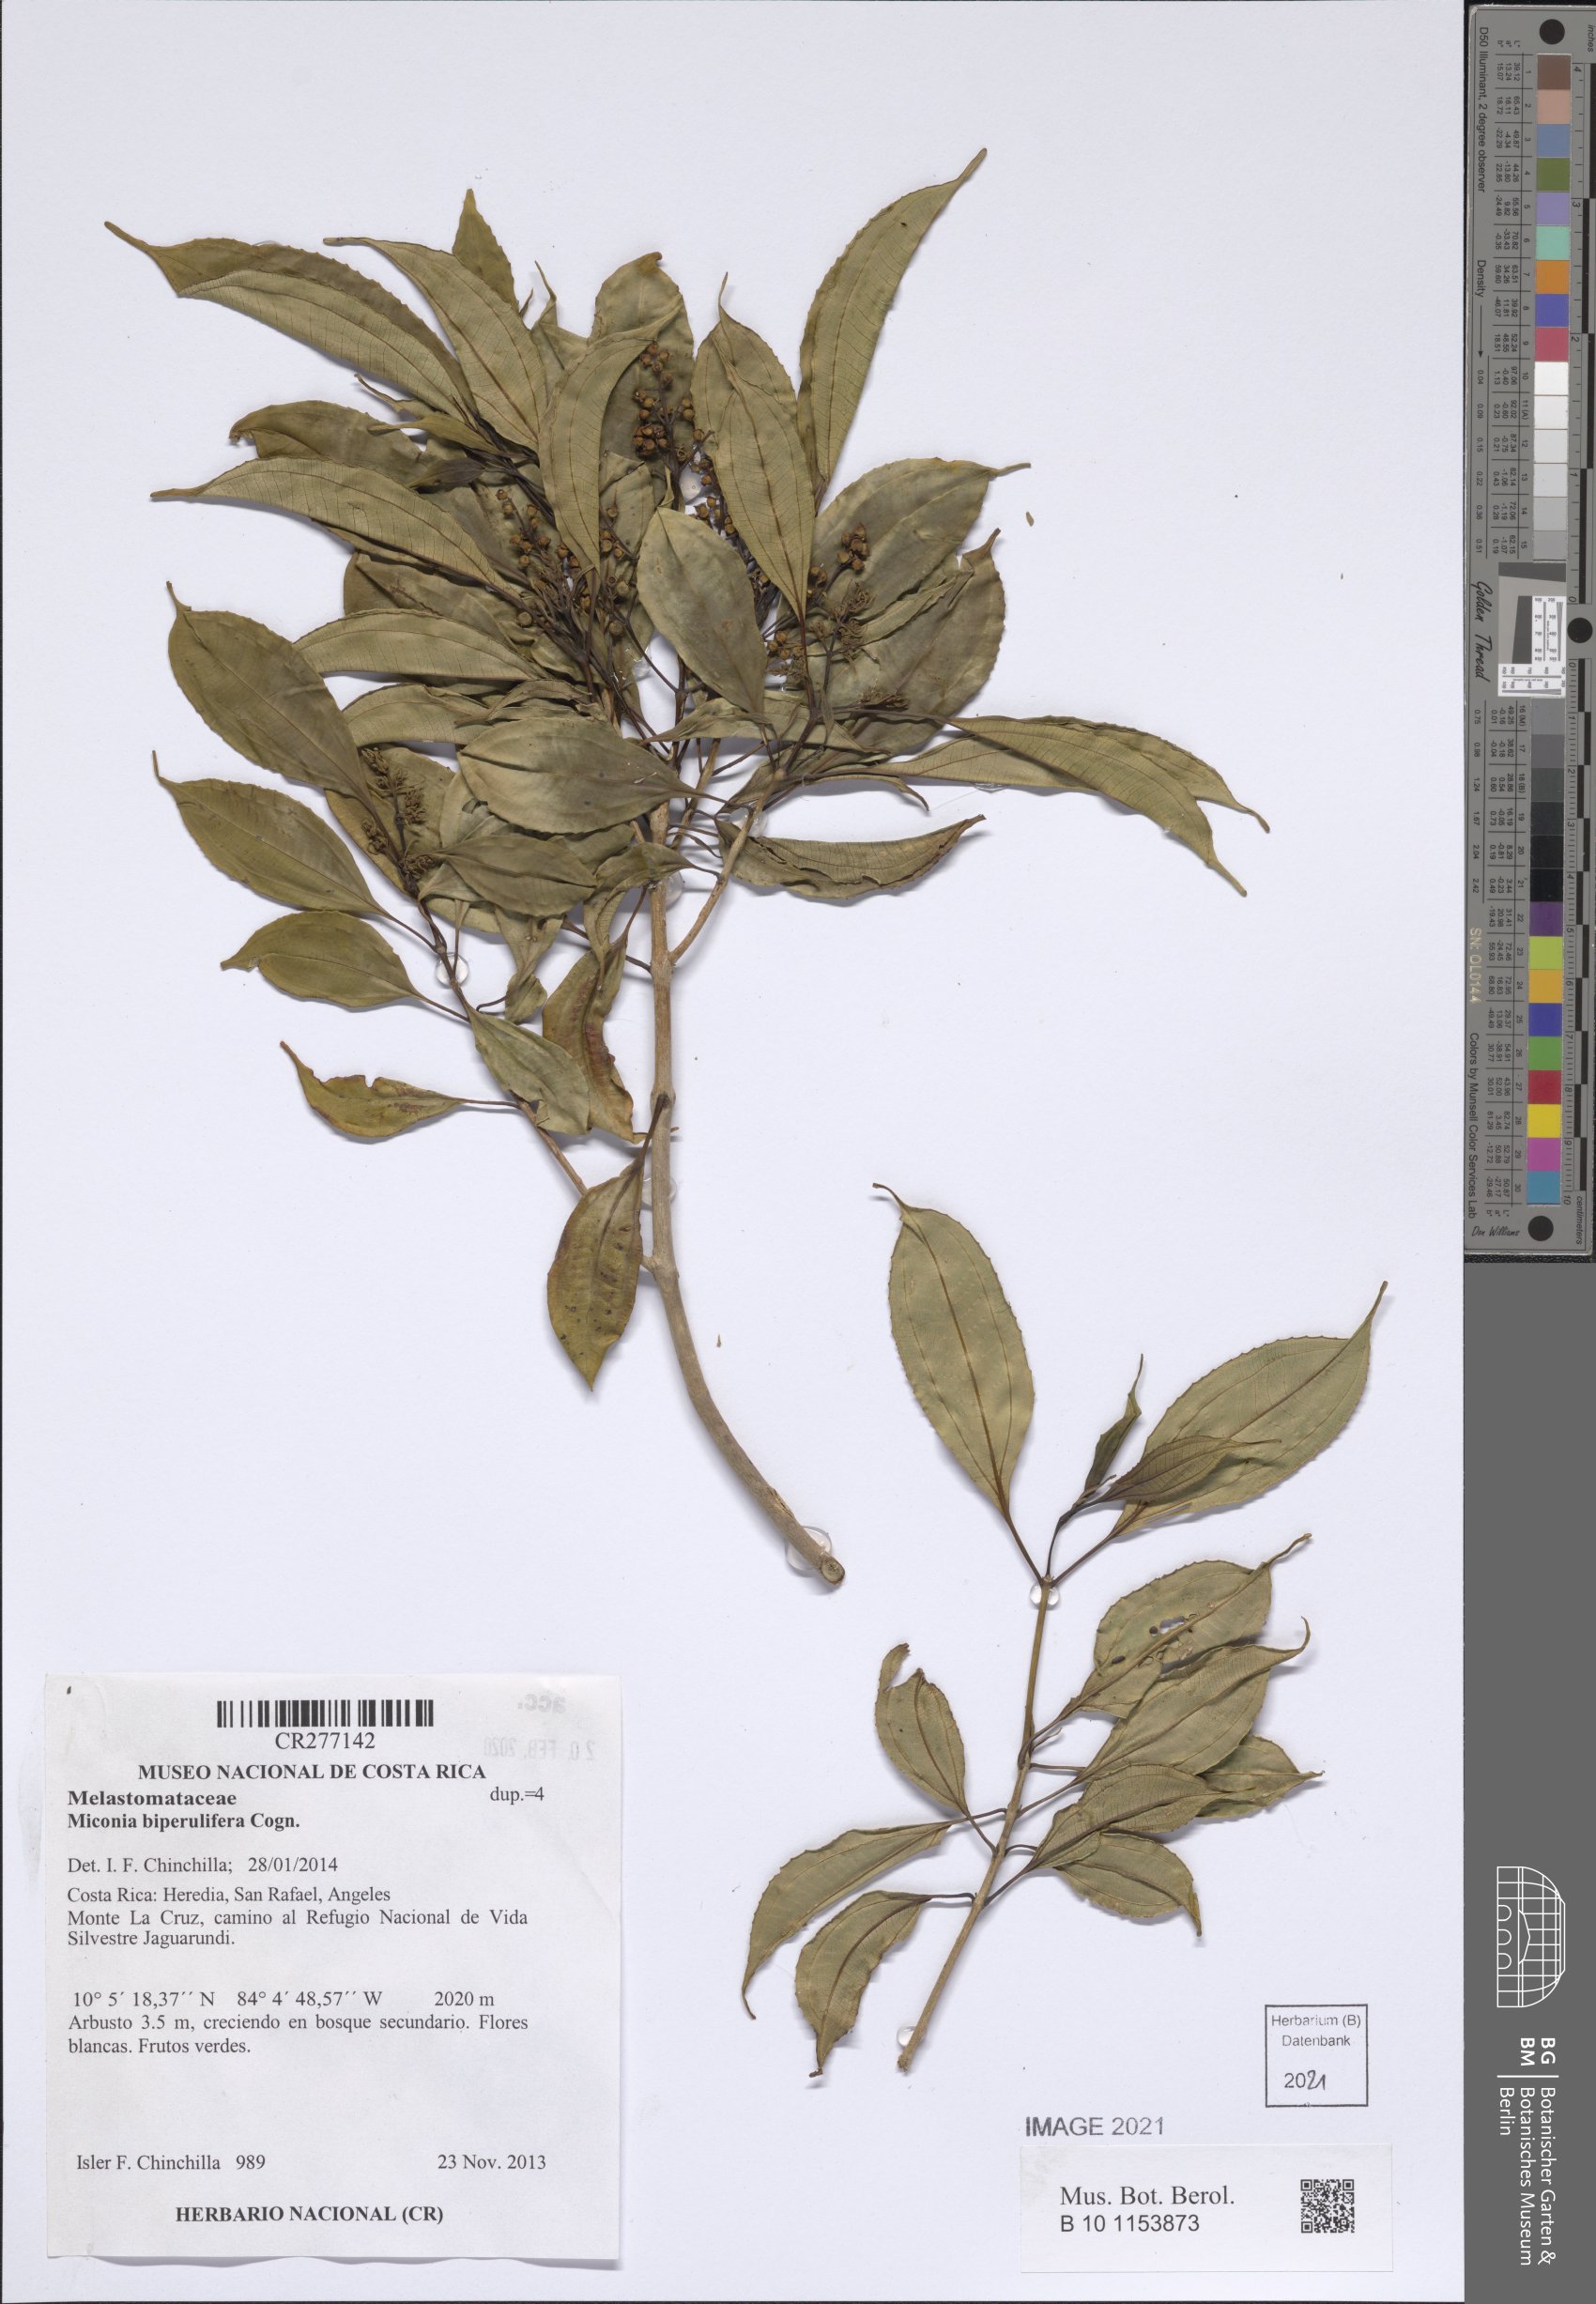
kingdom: Plantae
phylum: Tracheophyta
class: Magnoliopsida
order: Myrtales
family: Melastomataceae
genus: Miconia
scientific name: Miconia biperulifera
